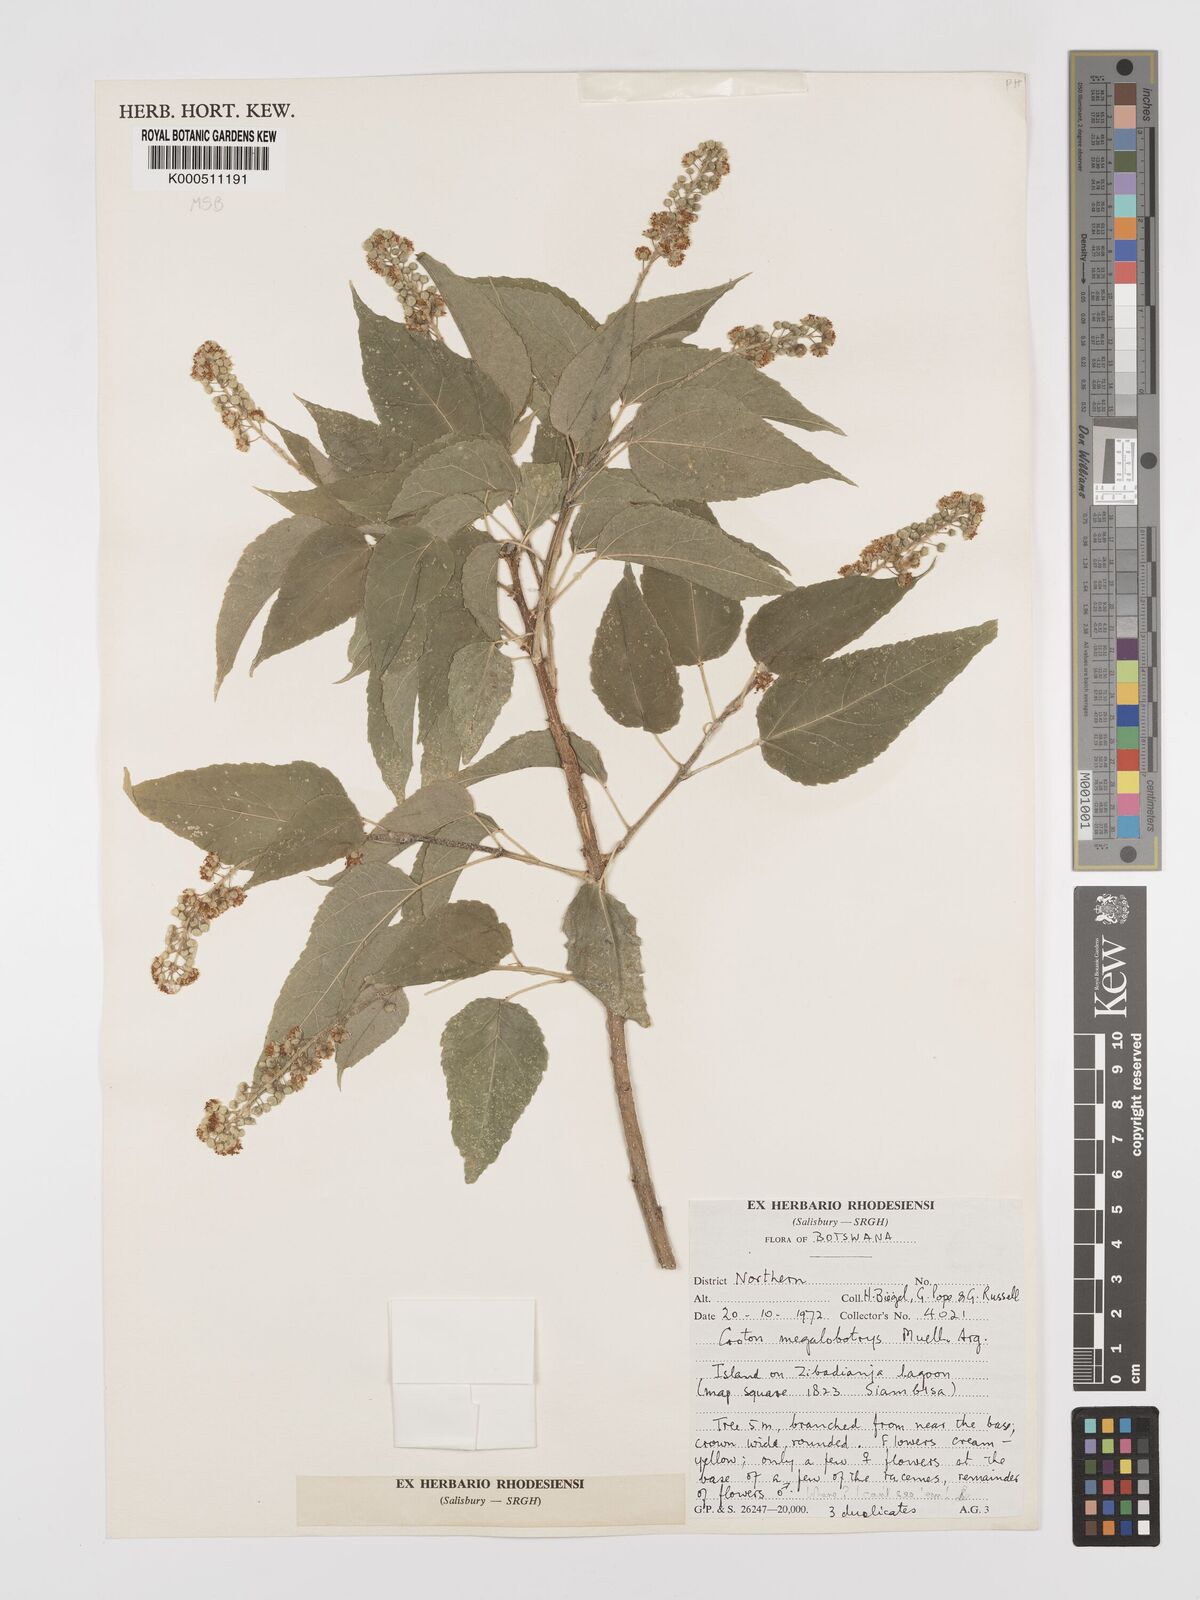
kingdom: Plantae
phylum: Tracheophyta
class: Magnoliopsida
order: Malpighiales
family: Euphorbiaceae
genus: Croton
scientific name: Croton
